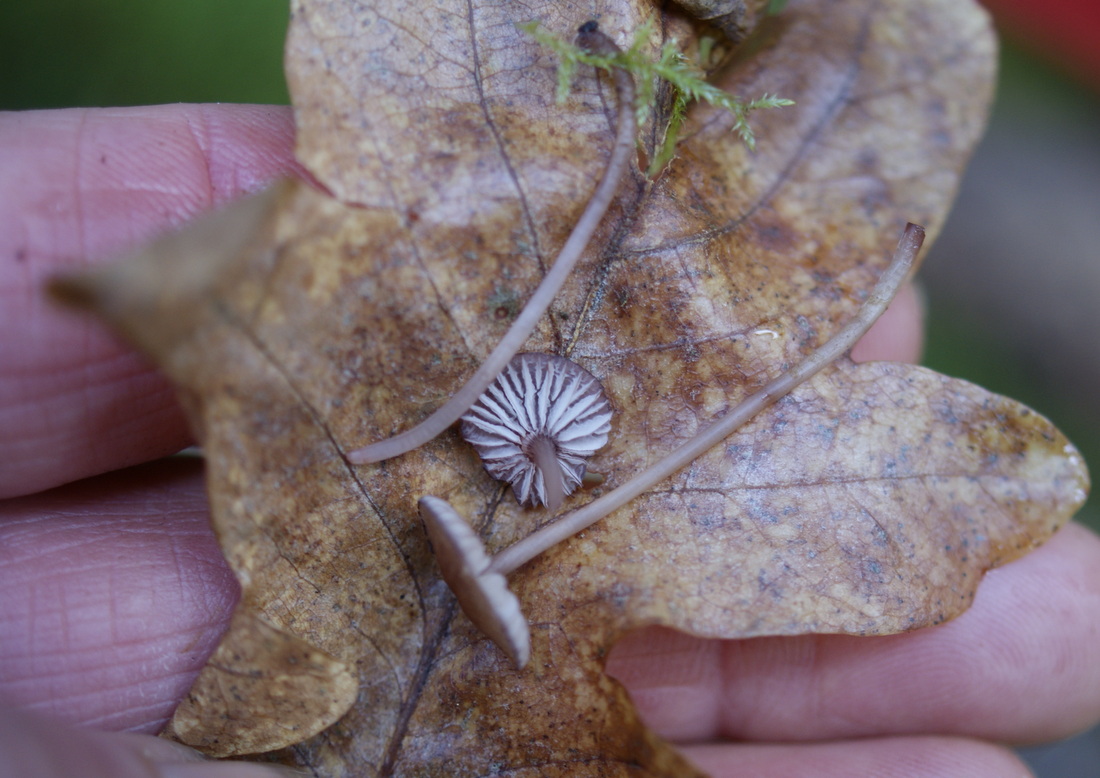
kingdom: Fungi
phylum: Basidiomycota
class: Agaricomycetes
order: Agaricales
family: Mycenaceae
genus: Mycena
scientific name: Mycena sanguinolenta
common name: rødmælket huesvamp
